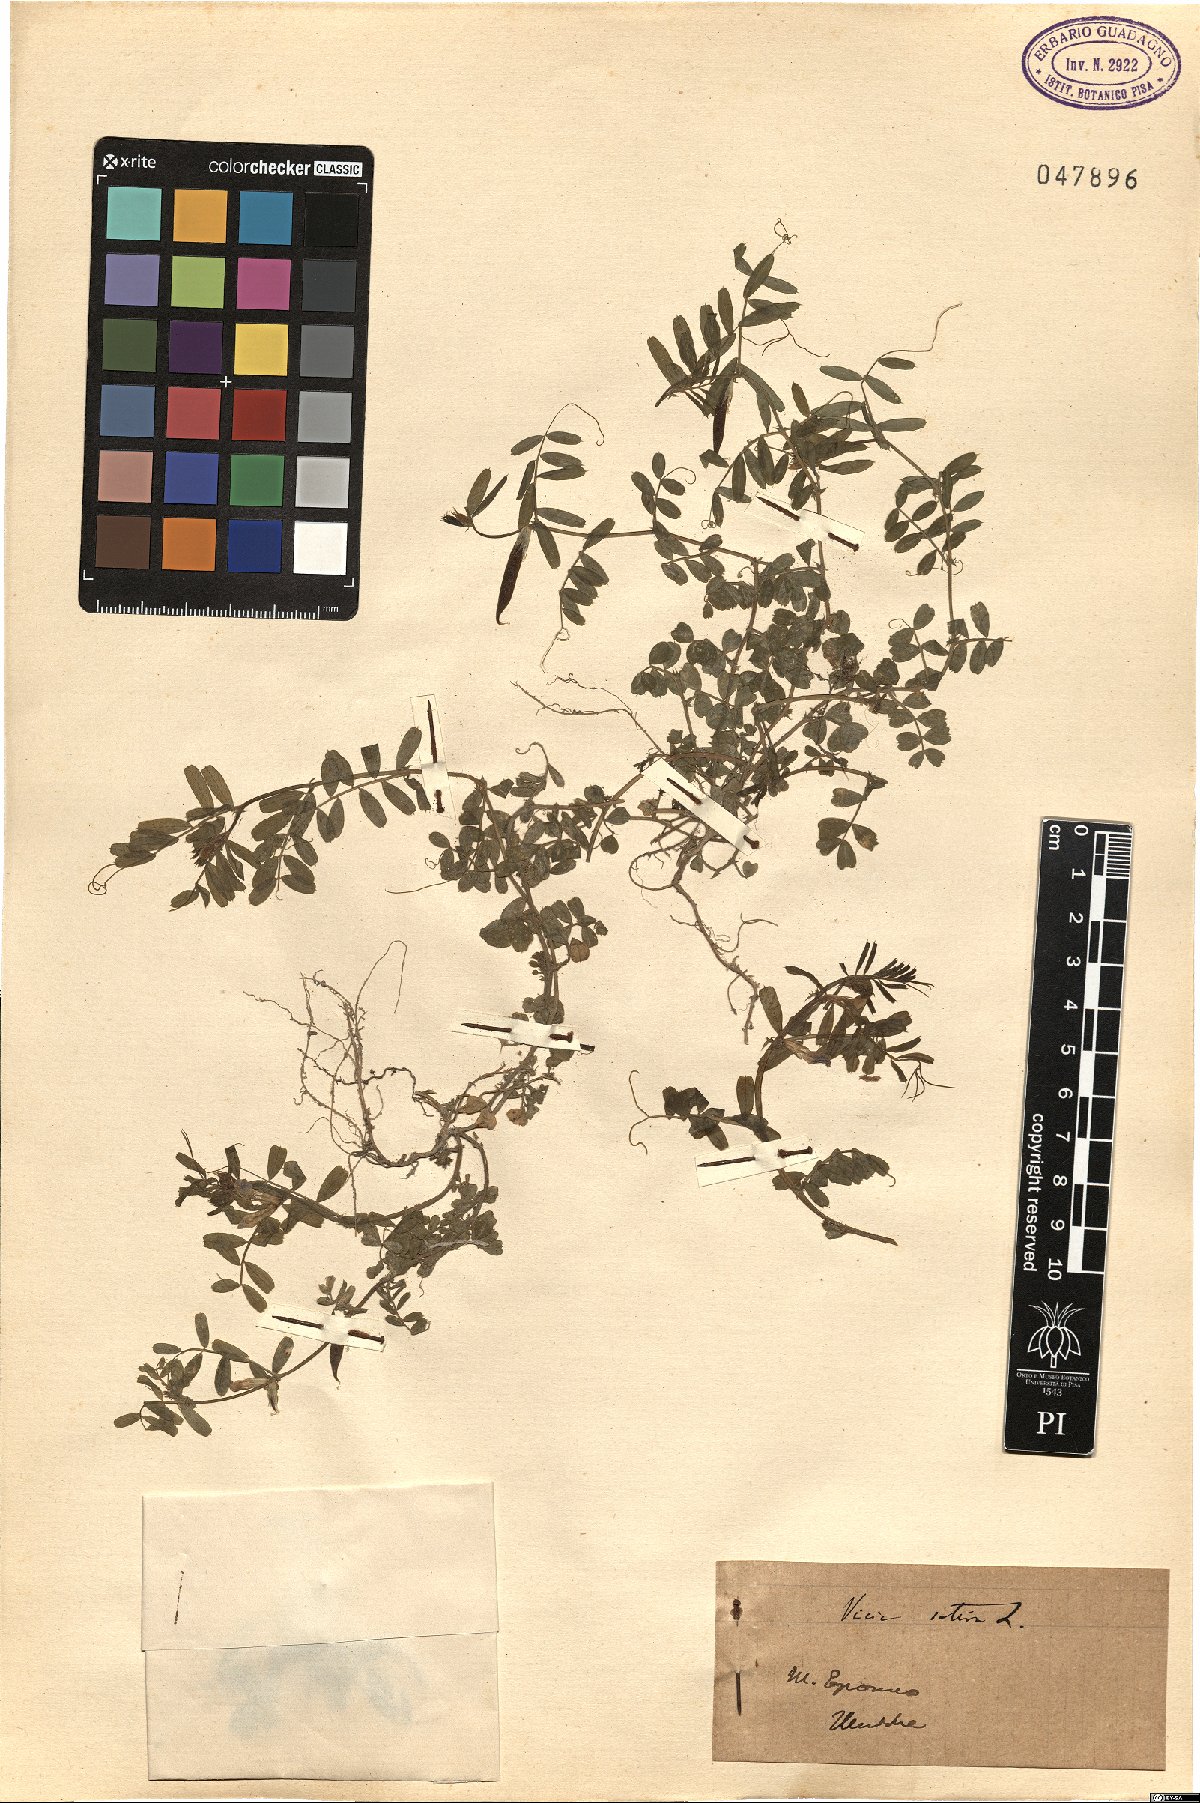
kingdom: Plantae
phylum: Tracheophyta
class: Magnoliopsida
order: Fabales
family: Fabaceae
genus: Vicia
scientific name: Vicia sativa
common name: Garden vetch
